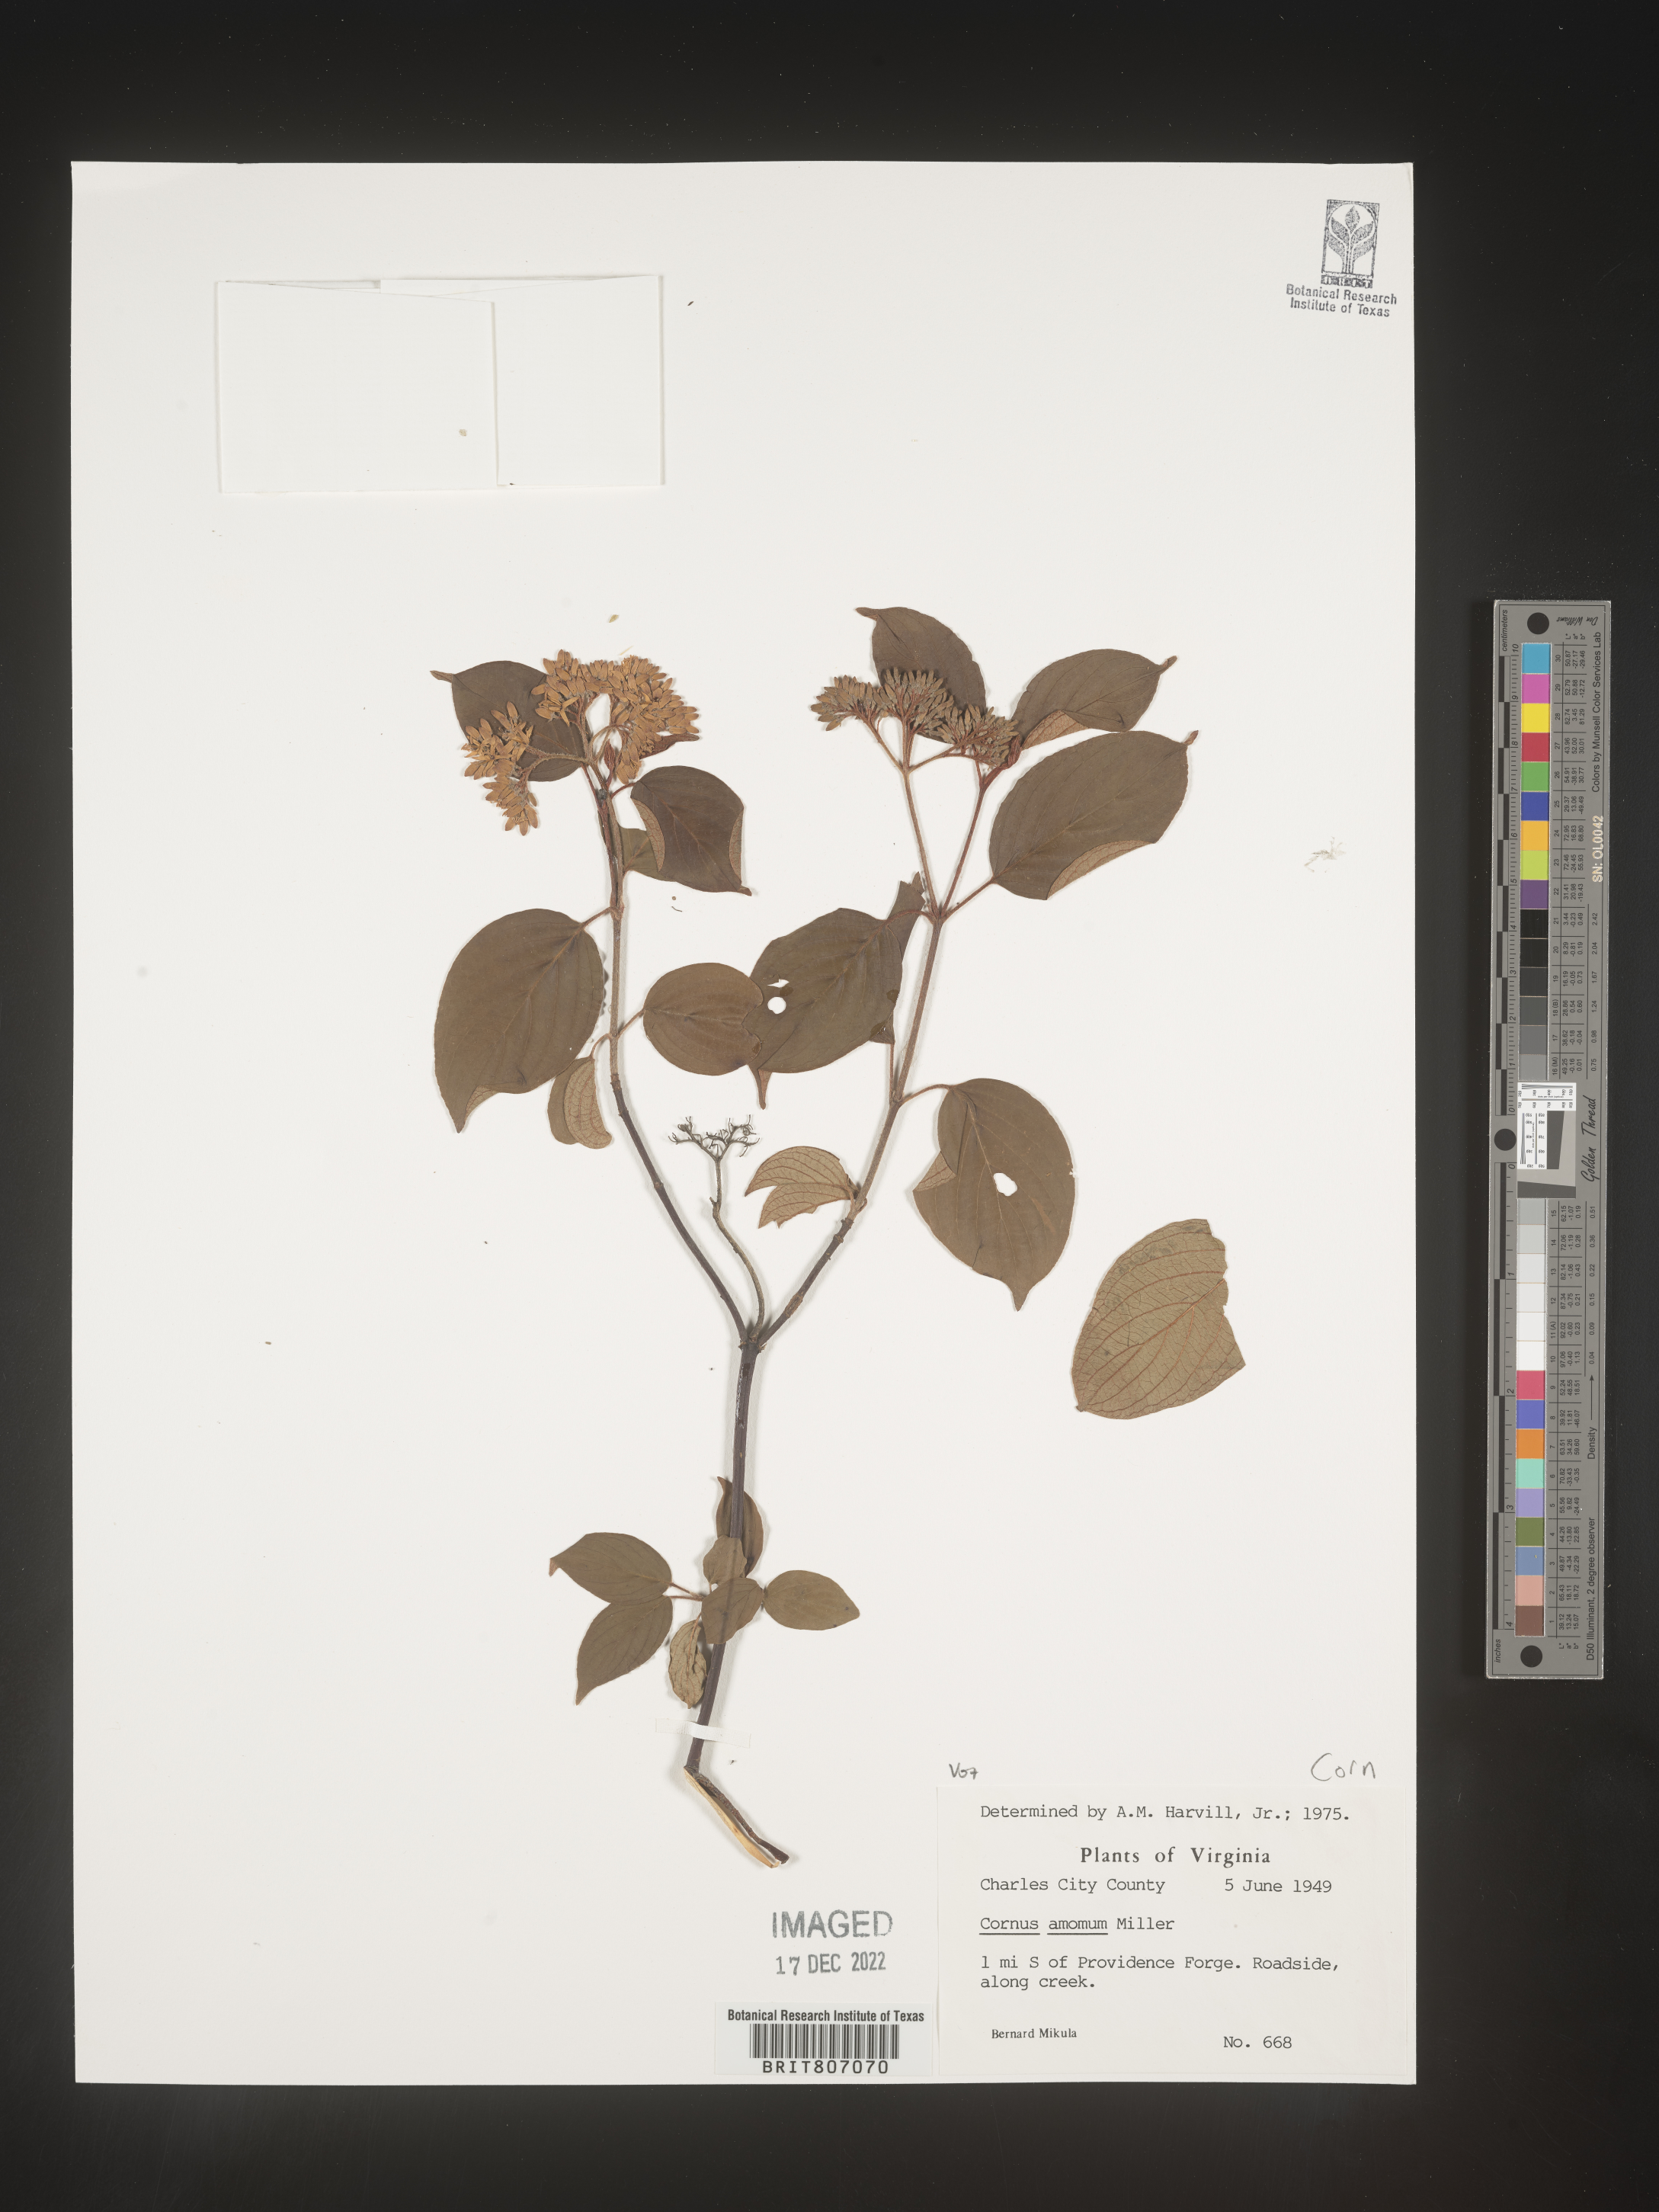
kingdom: Plantae
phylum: Tracheophyta
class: Magnoliopsida
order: Cornales
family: Cornaceae
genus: Cornus
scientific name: Cornus amomum
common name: Silky dogwood
